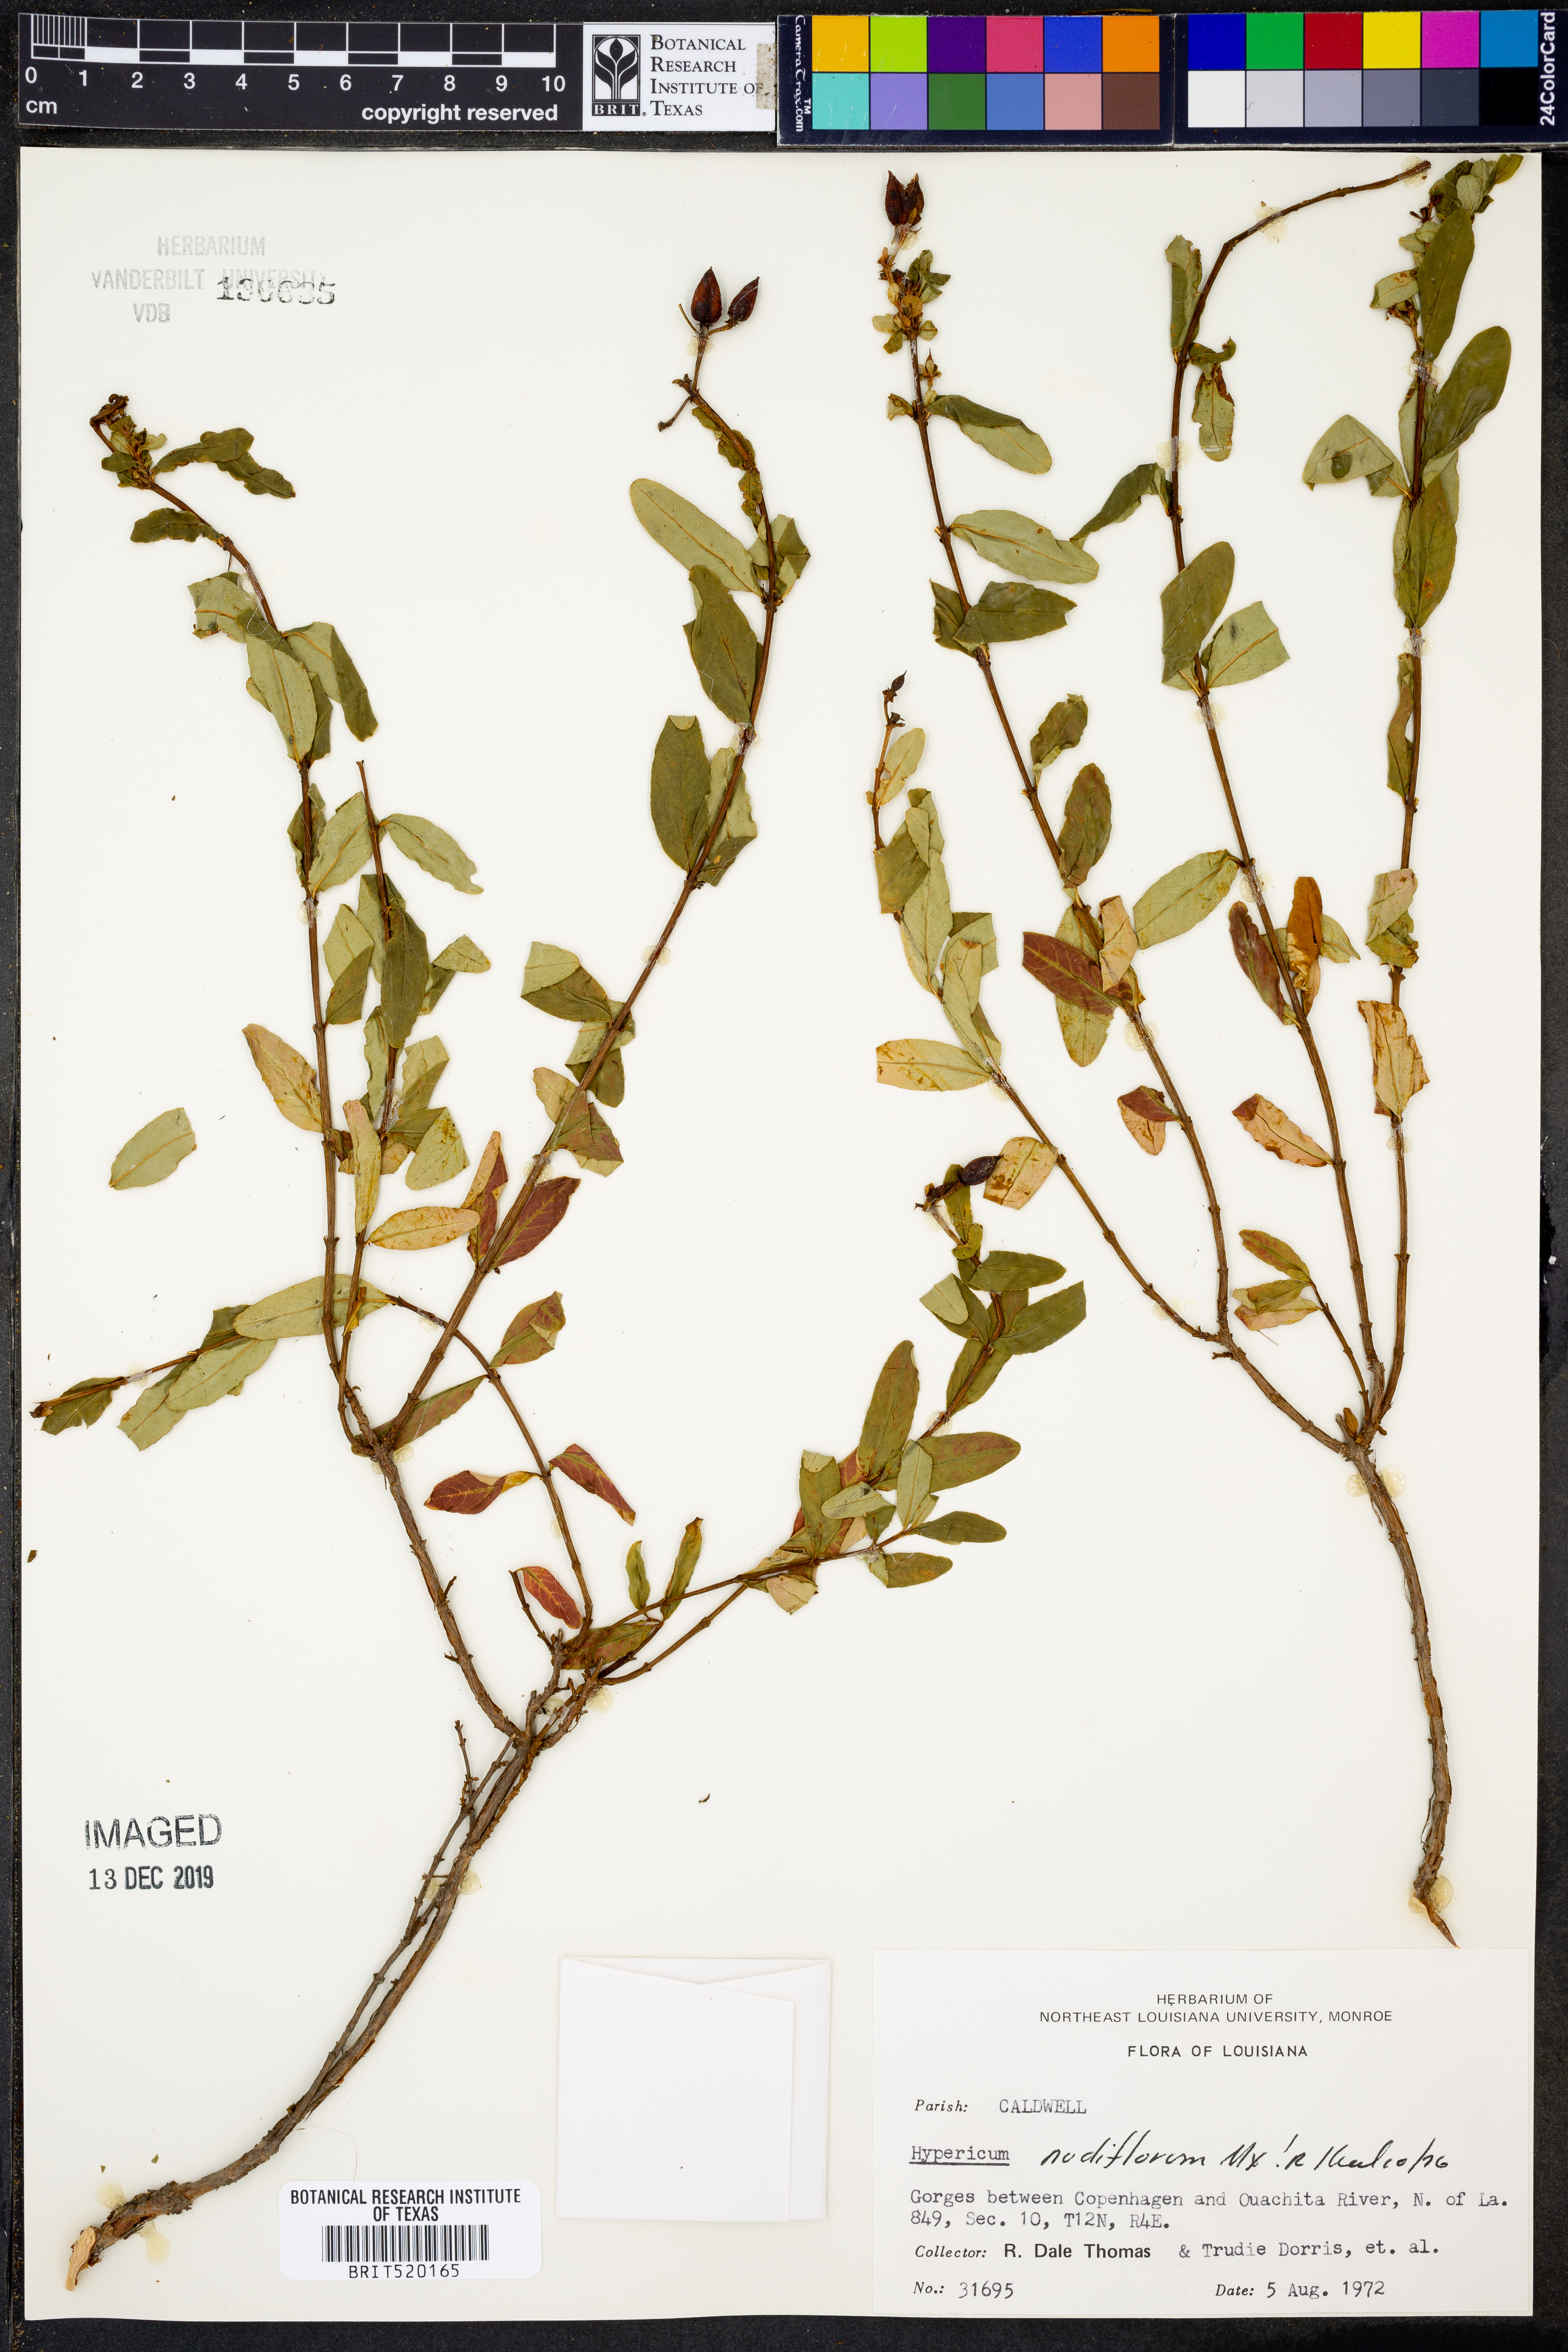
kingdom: Plantae
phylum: Tracheophyta
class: Magnoliopsida
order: Malpighiales
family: Hypericaceae
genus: Hypericum
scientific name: Hypericum nudiflorum
